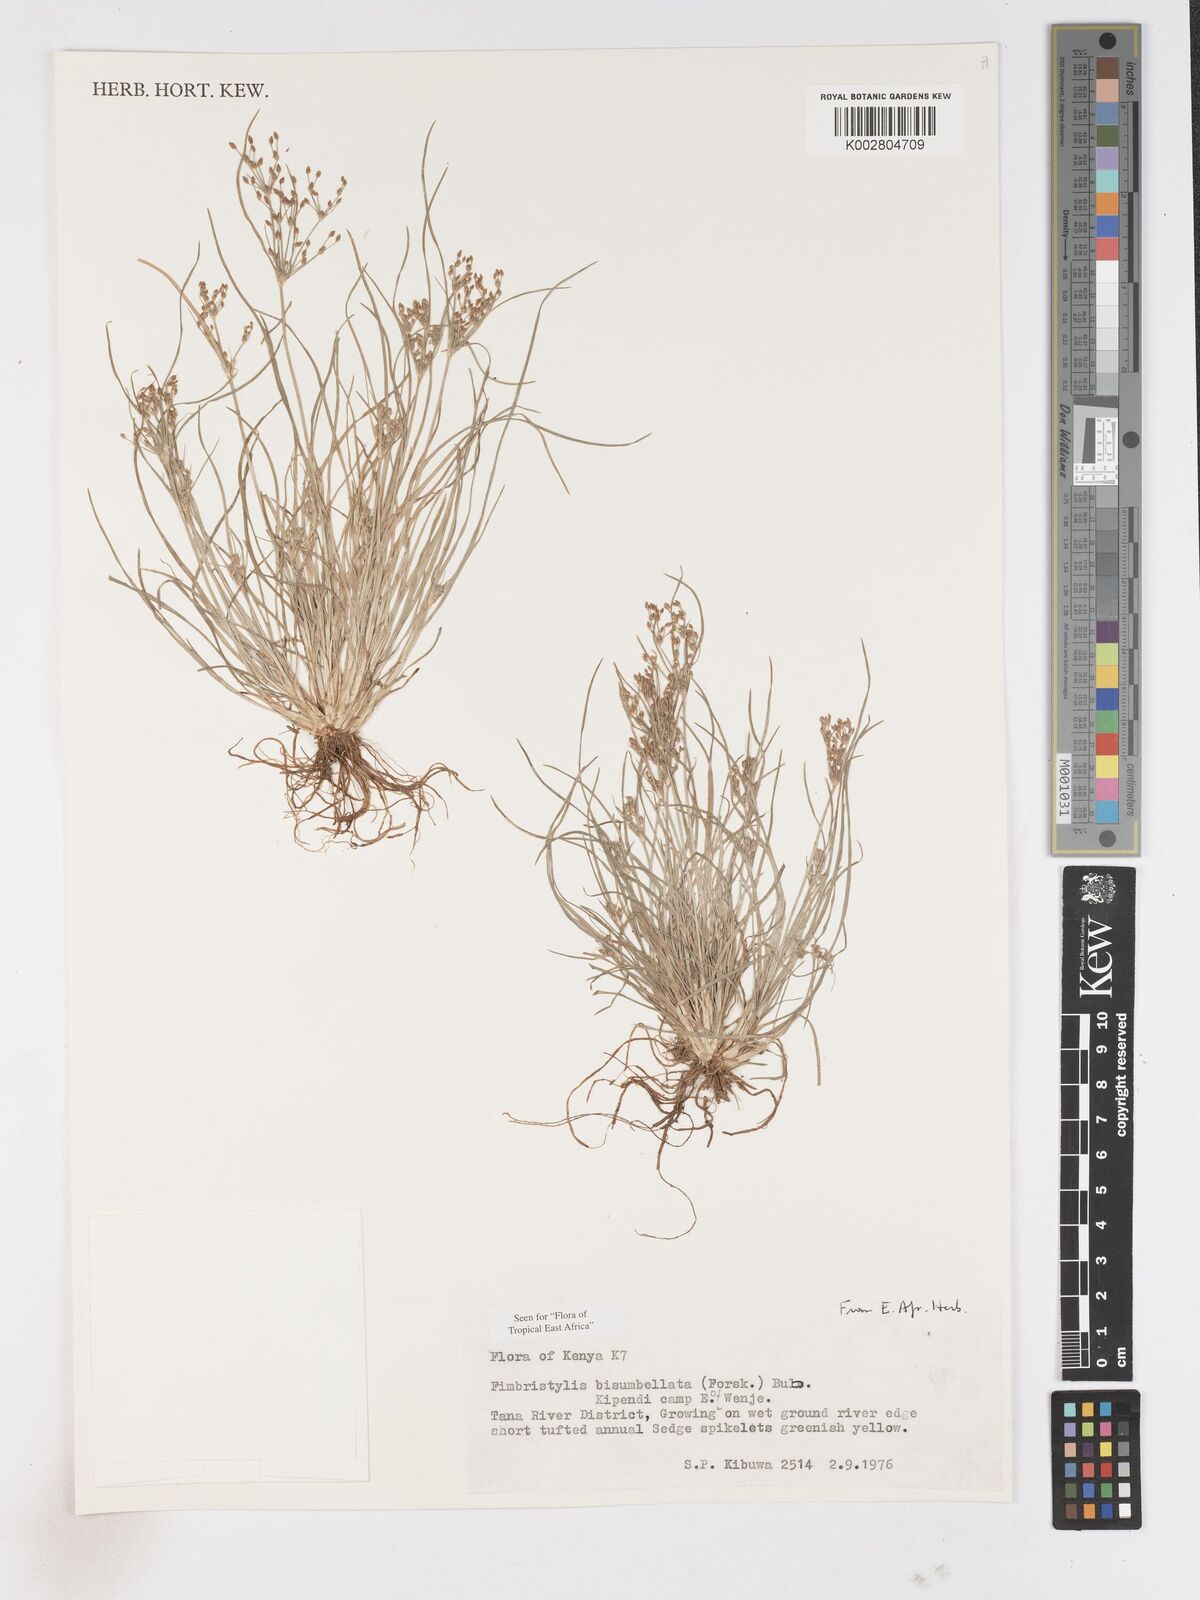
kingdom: Plantae
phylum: Tracheophyta
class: Liliopsida
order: Poales
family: Cyperaceae
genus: Fimbristylis
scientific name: Fimbristylis bisumbellata
